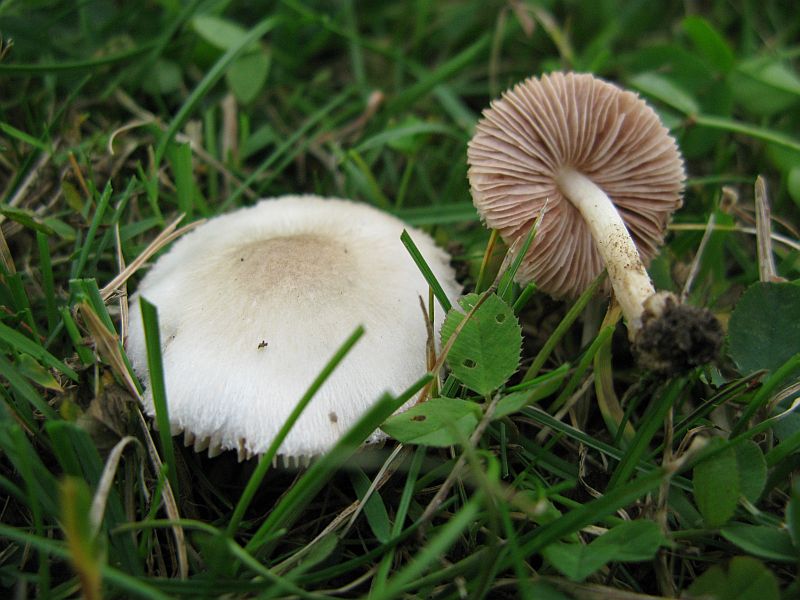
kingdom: Fungi
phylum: Basidiomycota
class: Agaricomycetes
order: Agaricales
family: Pluteaceae
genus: Volvariella
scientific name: Volvariella murinella
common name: musegrå posesvamp
